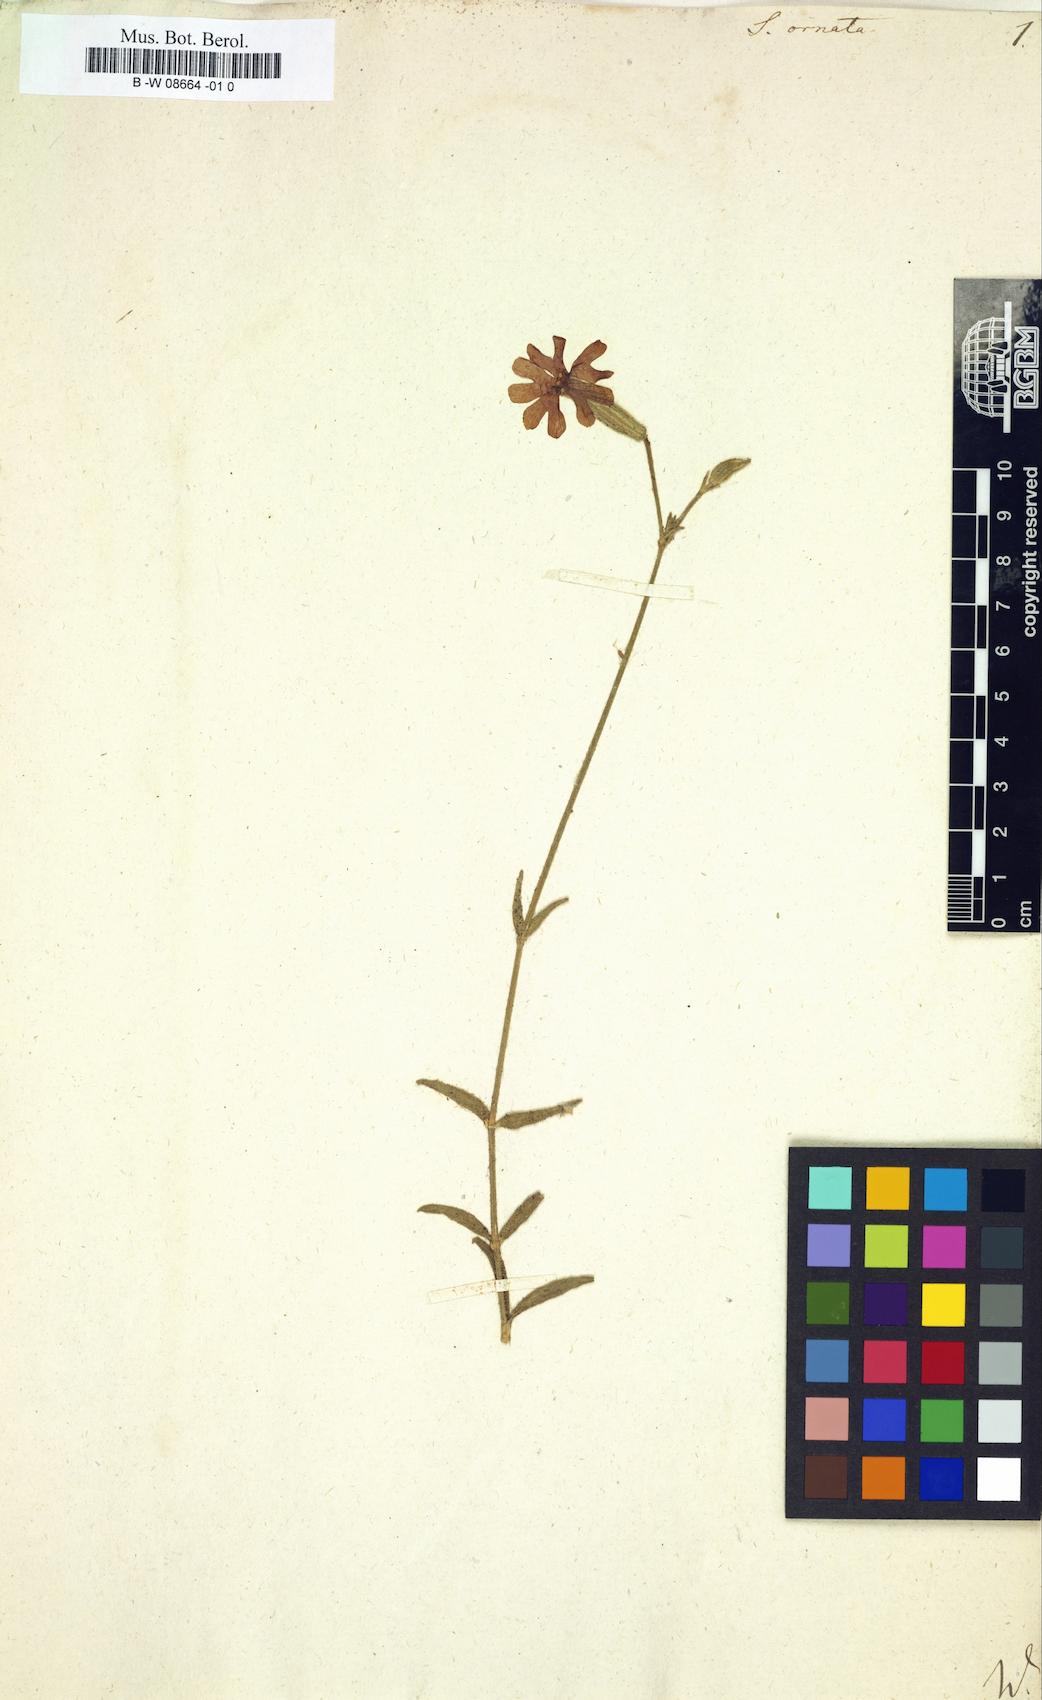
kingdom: Plantae
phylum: Tracheophyta
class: Magnoliopsida
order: Caryophyllales
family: Caryophyllaceae
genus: Silene
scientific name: Silene ornata
